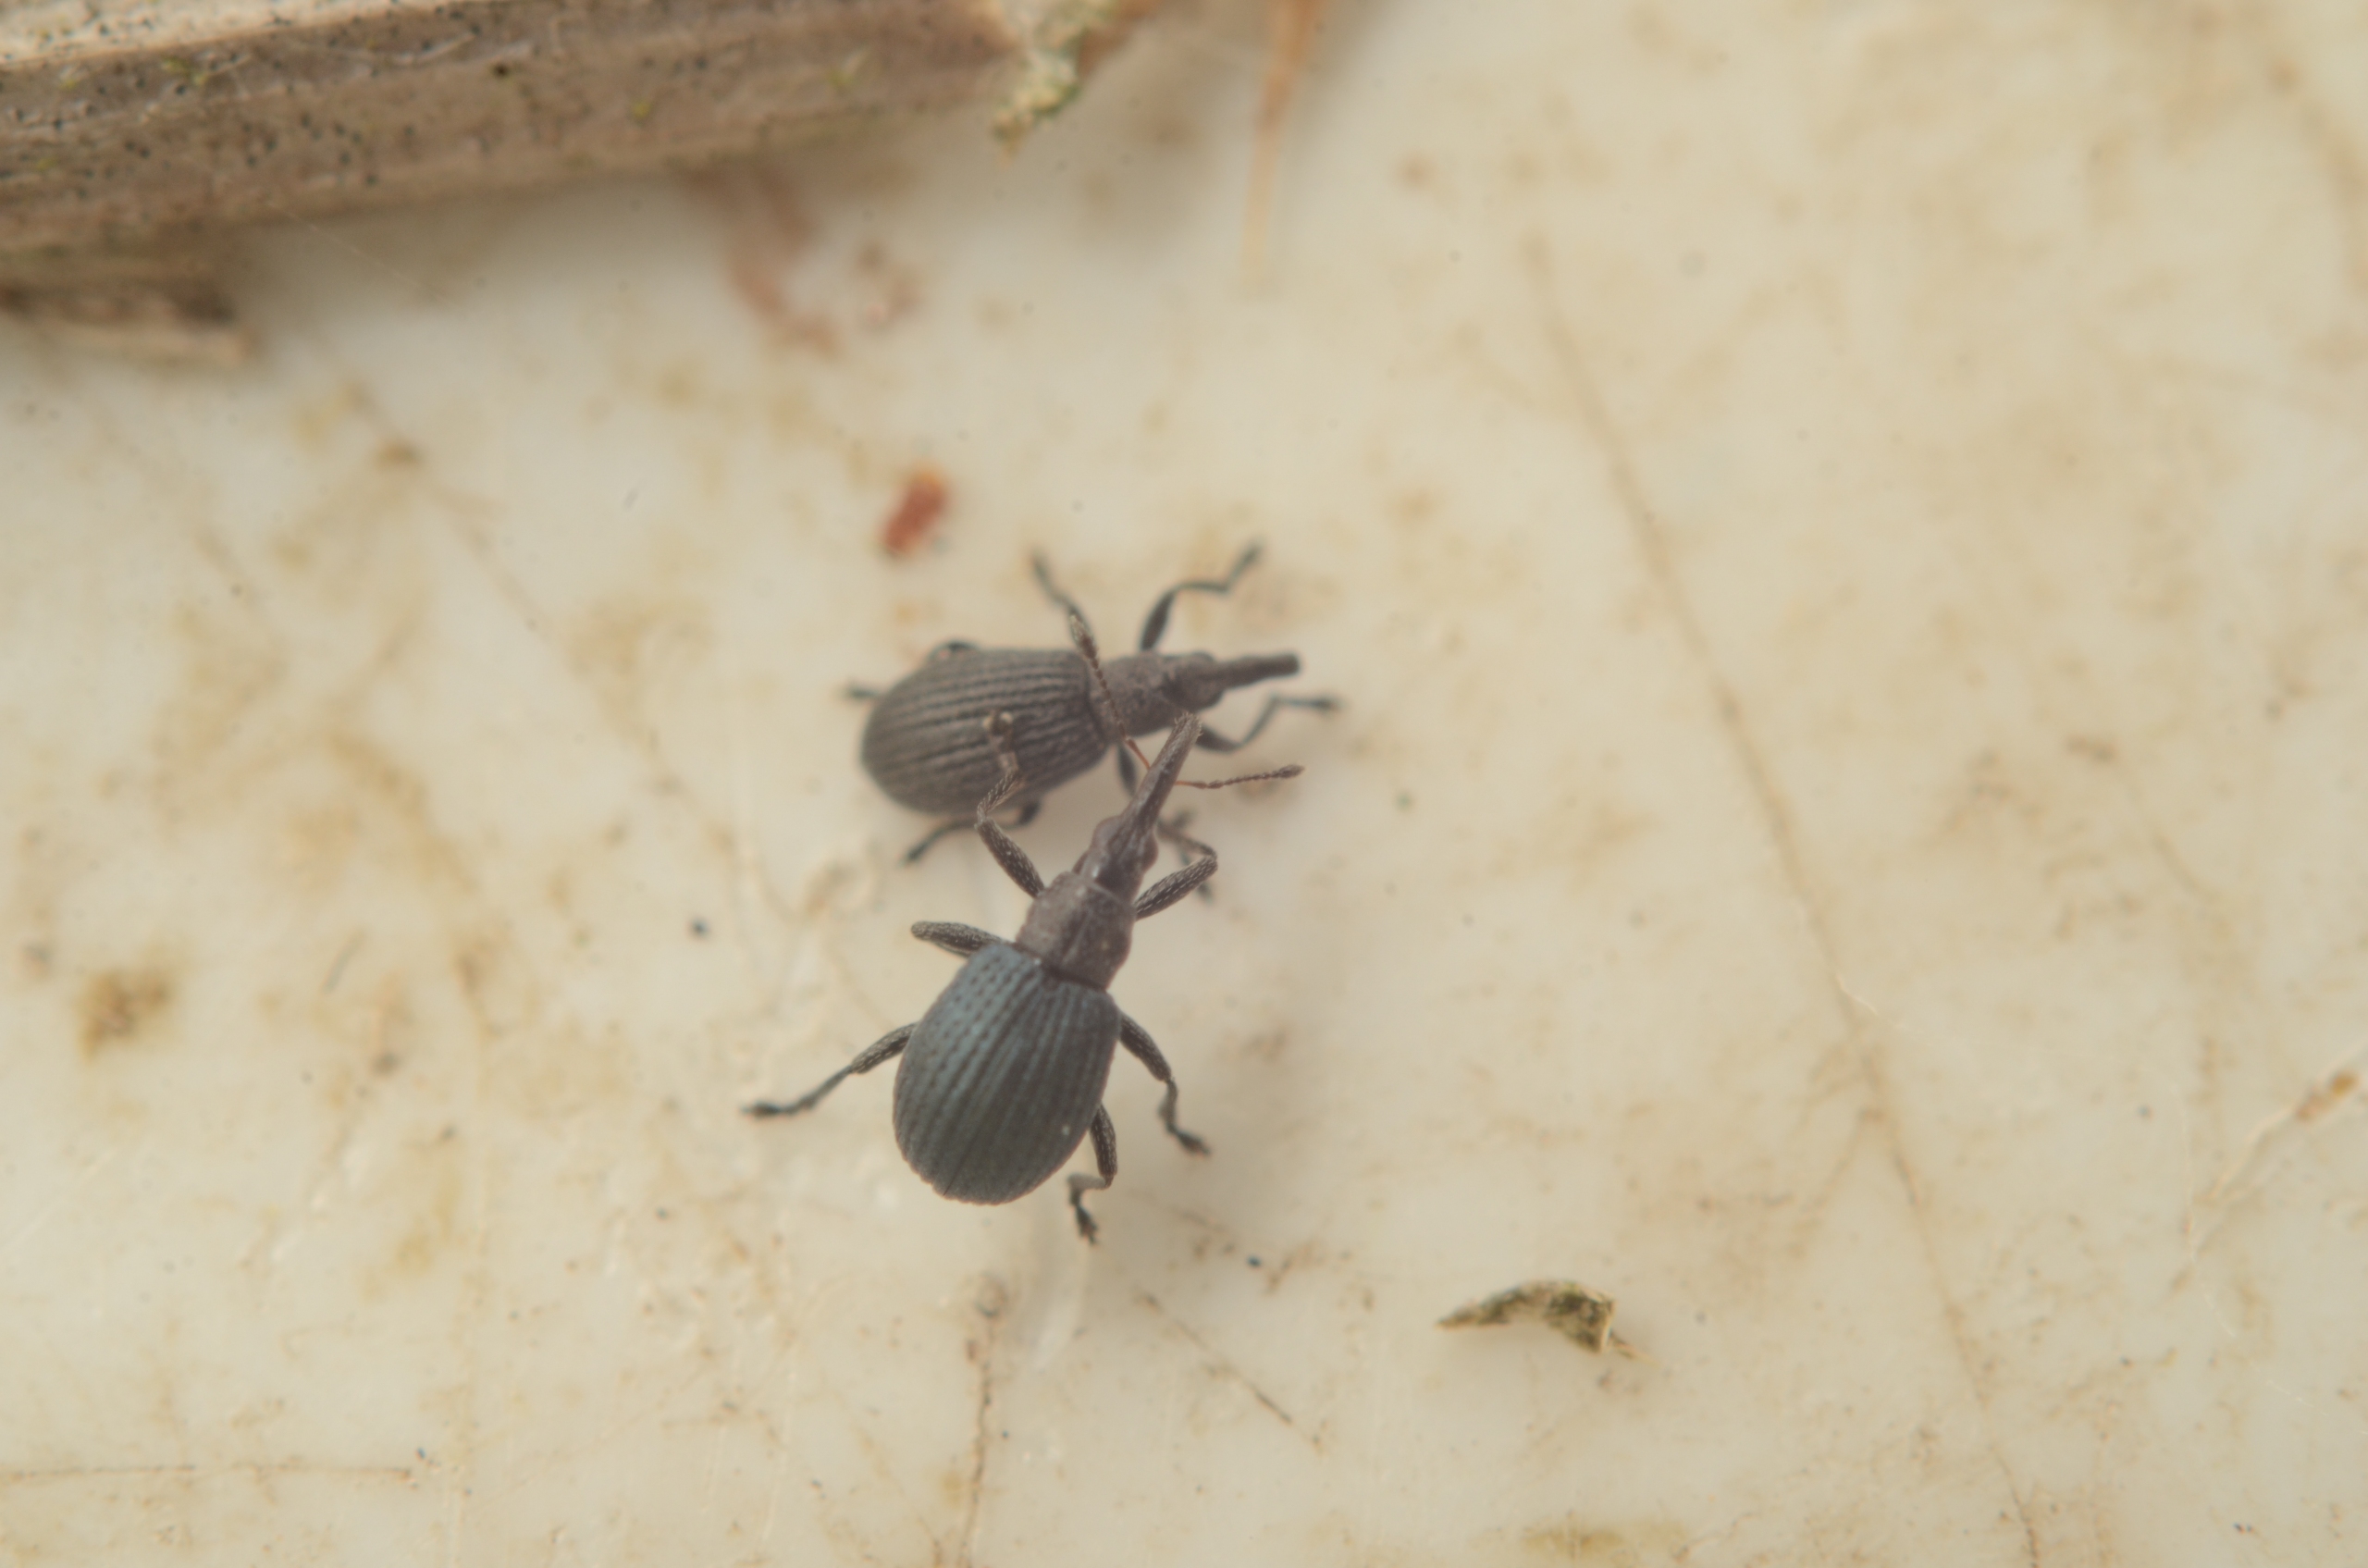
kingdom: Animalia
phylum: Arthropoda
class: Insecta
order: Coleoptera
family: Apionidae
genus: Cyanapion
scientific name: Cyanapion spencii
